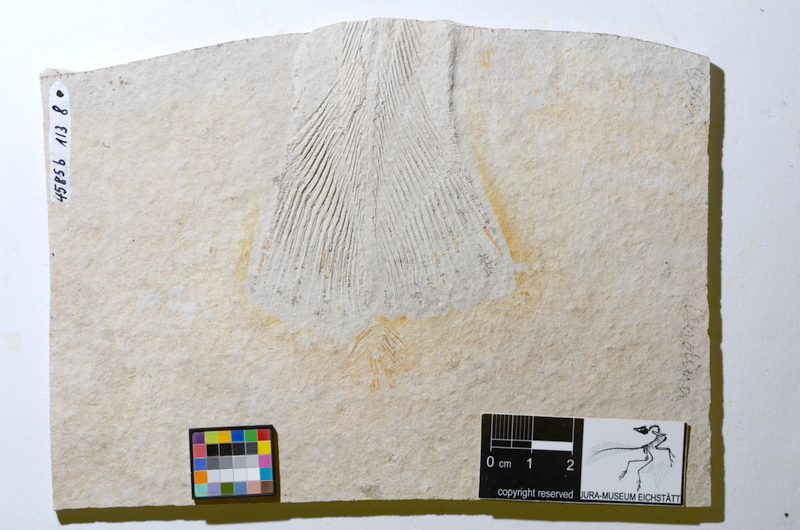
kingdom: Animalia
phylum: Chordata
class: Coelacanthi
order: Coelacanthiformes
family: Latimeroidea
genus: Undina
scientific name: Undina
